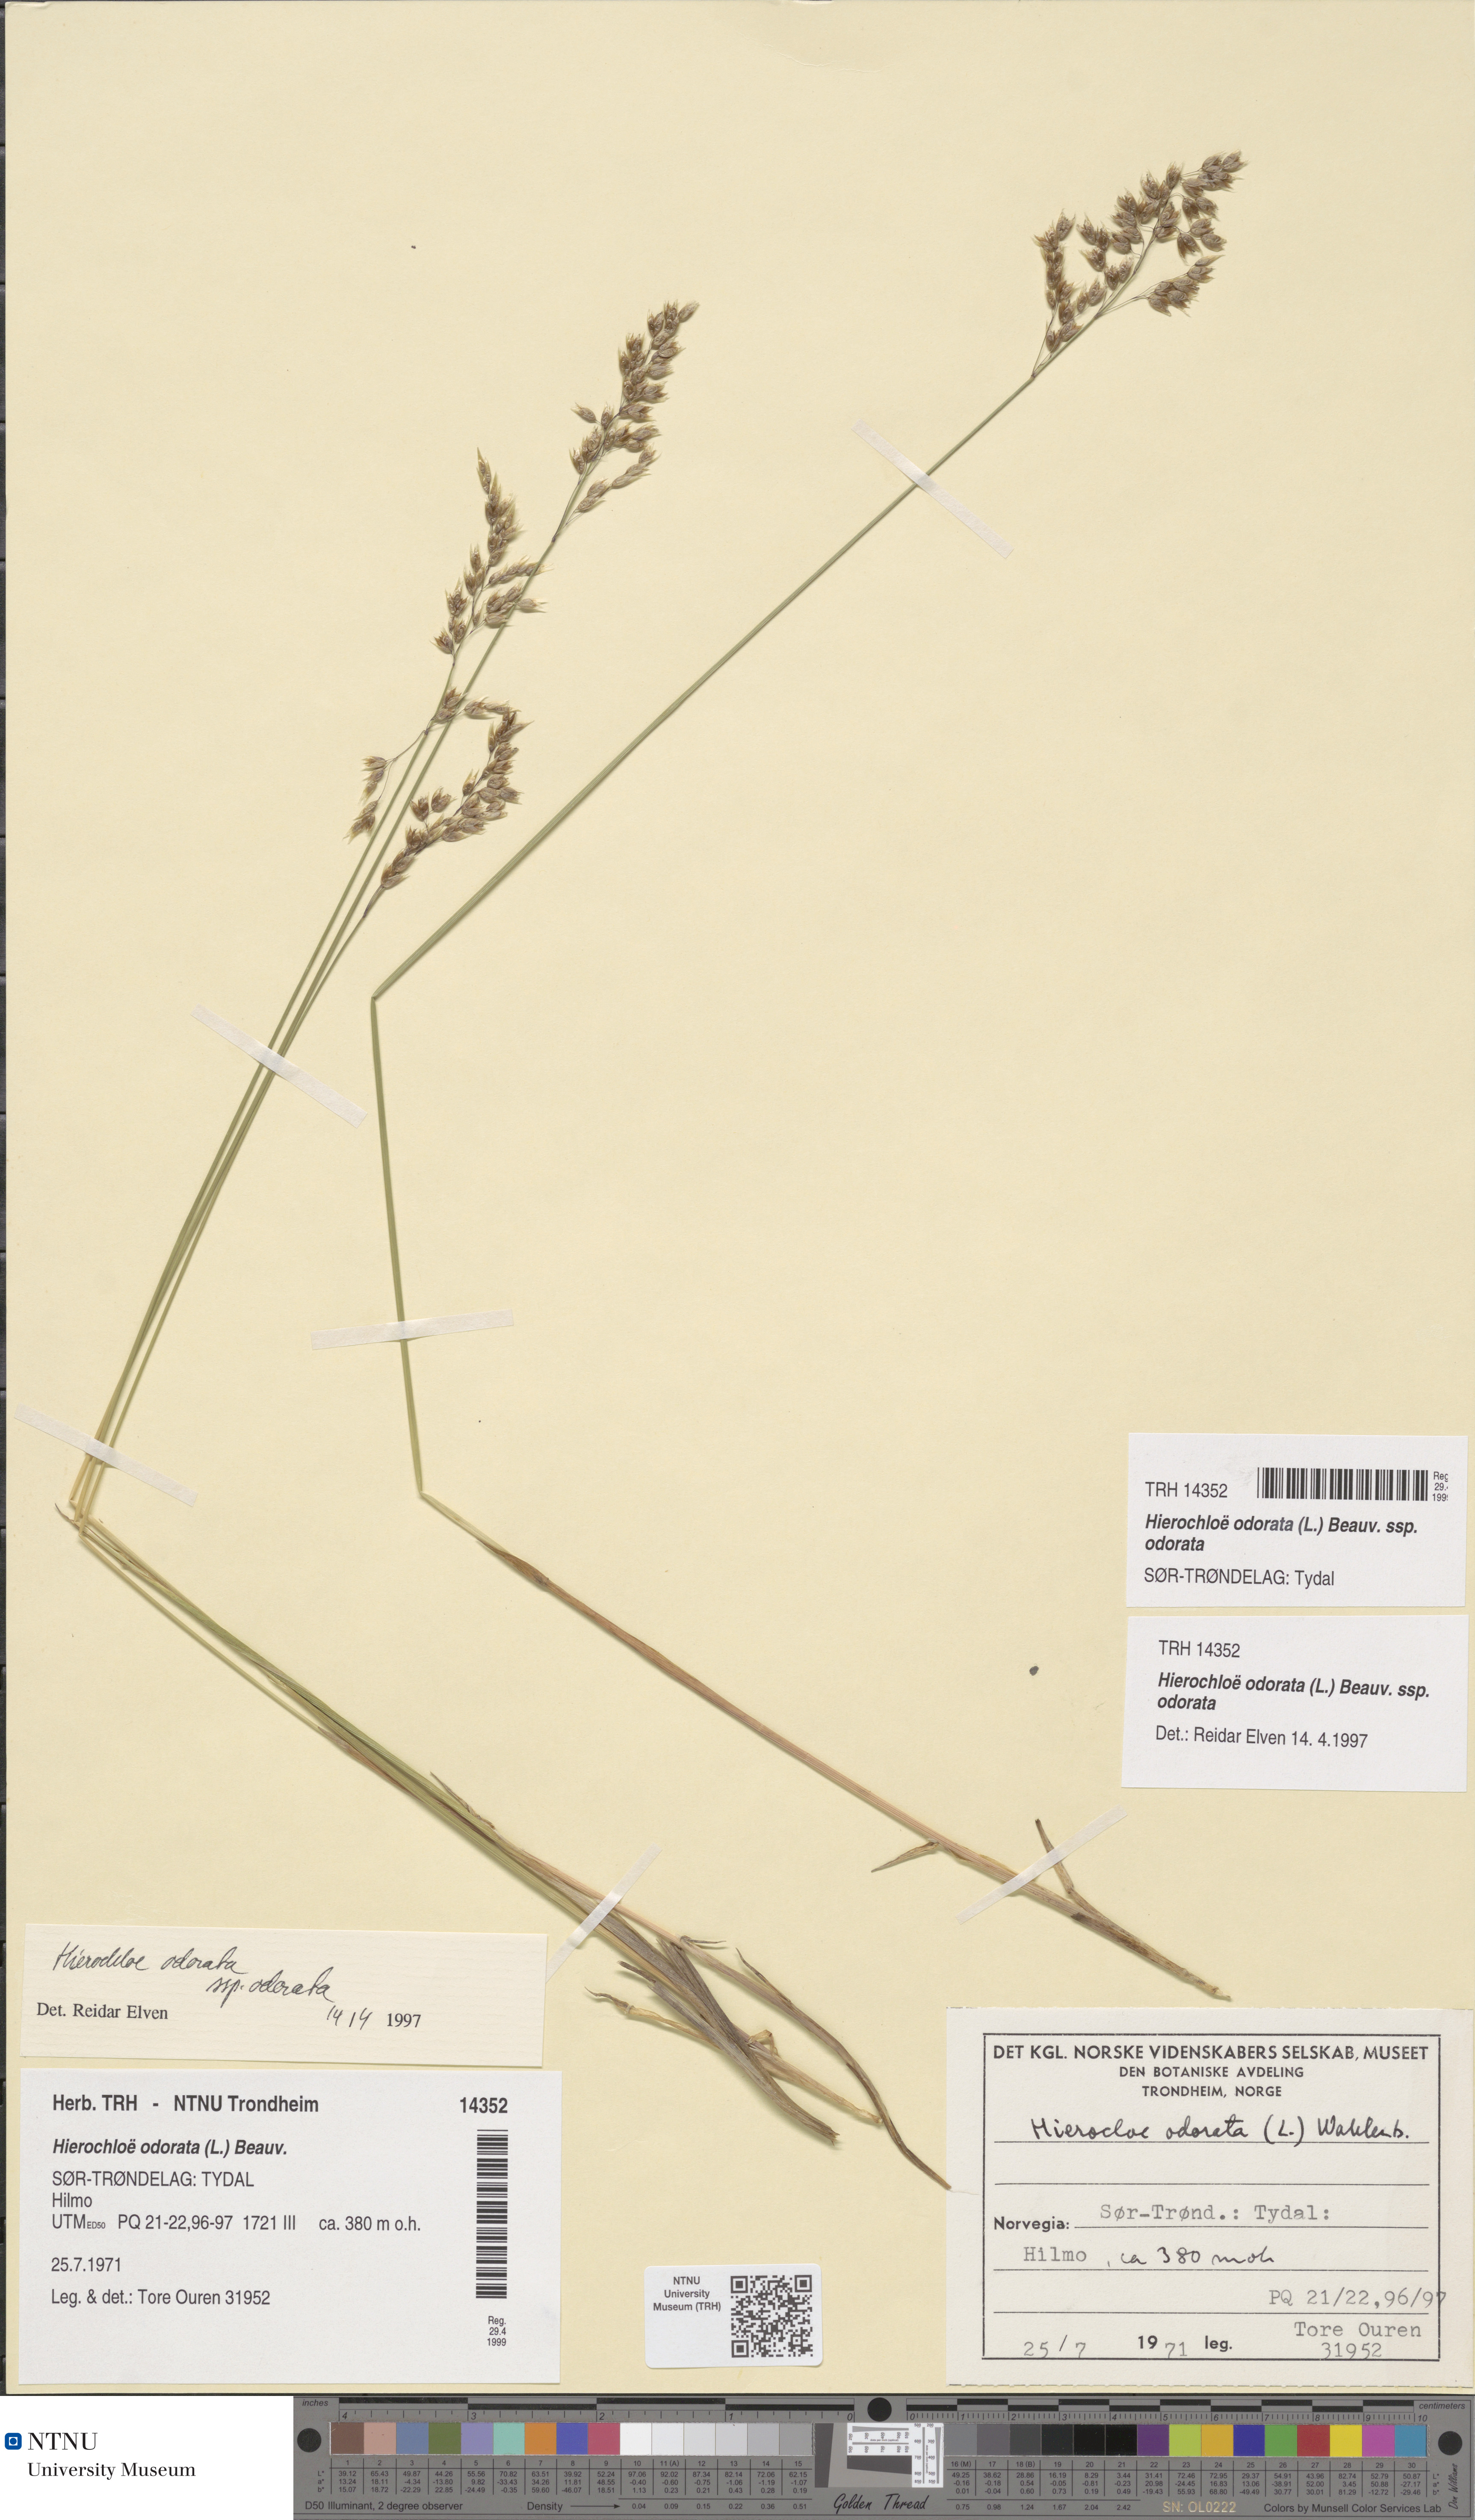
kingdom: Plantae
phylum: Tracheophyta
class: Liliopsida
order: Poales
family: Poaceae
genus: Anthoxanthum
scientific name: Anthoxanthum nitens
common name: Holy grass
